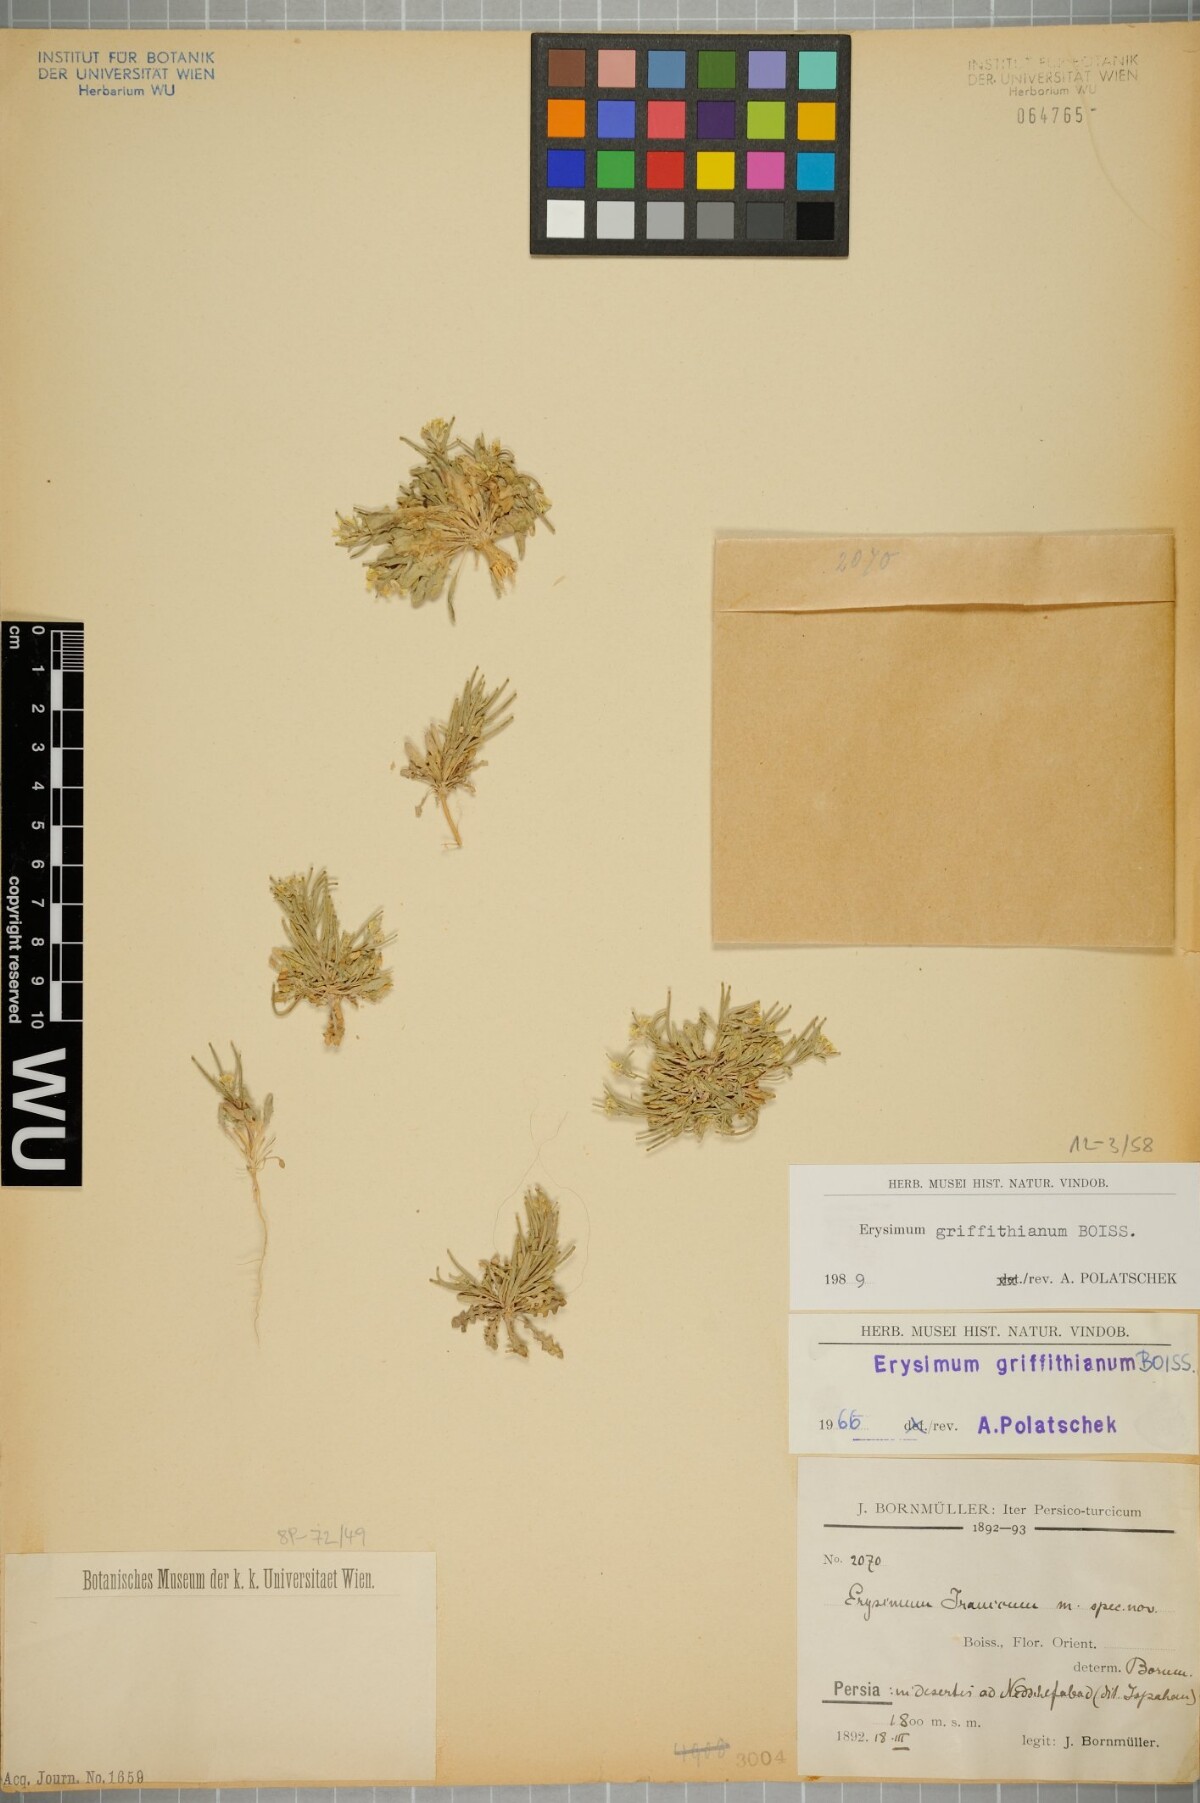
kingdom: Plantae
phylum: Tracheophyta
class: Magnoliopsida
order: Brassicales
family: Brassicaceae
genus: Erysimum
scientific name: Erysimum sisymbrioides
